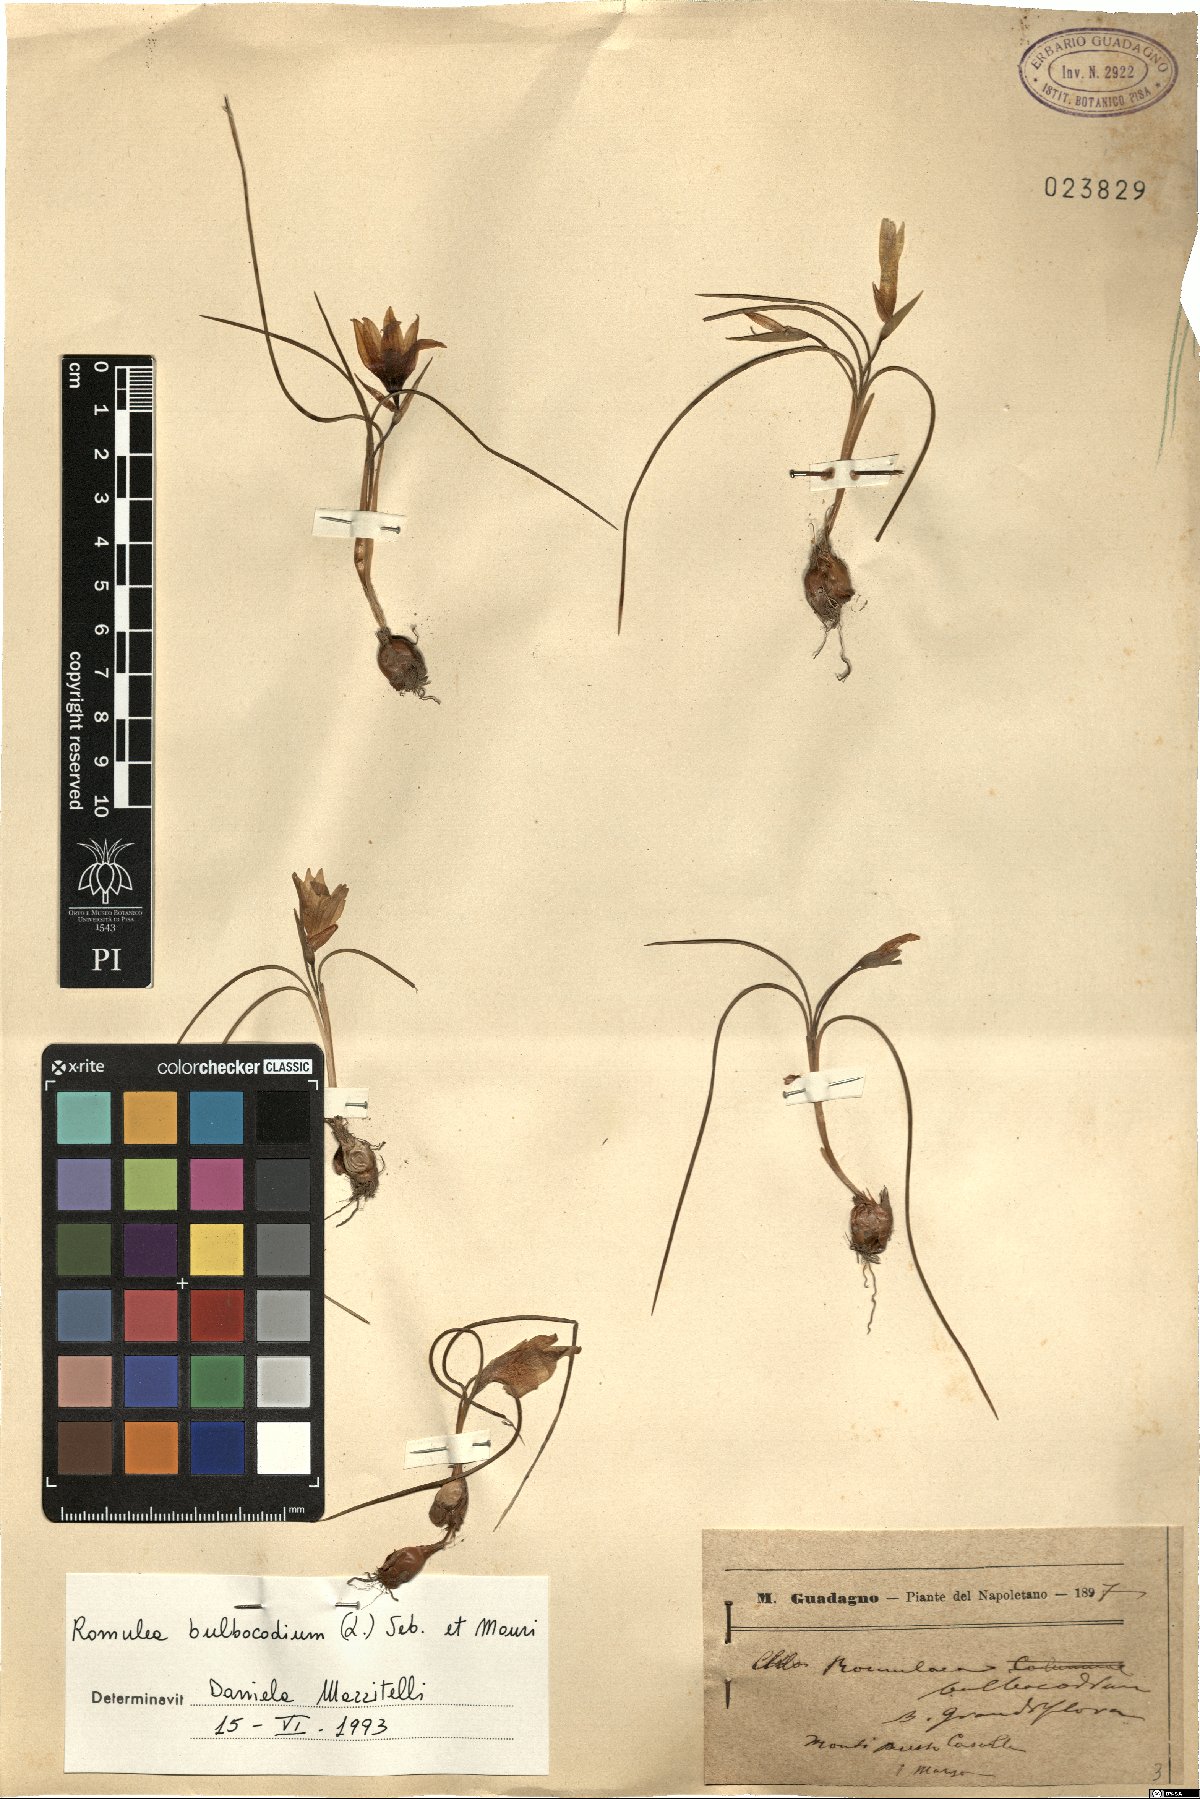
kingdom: Plantae
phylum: Tracheophyta
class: Liliopsida
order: Asparagales
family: Iridaceae
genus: Romulea
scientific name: Romulea bulbocodium
